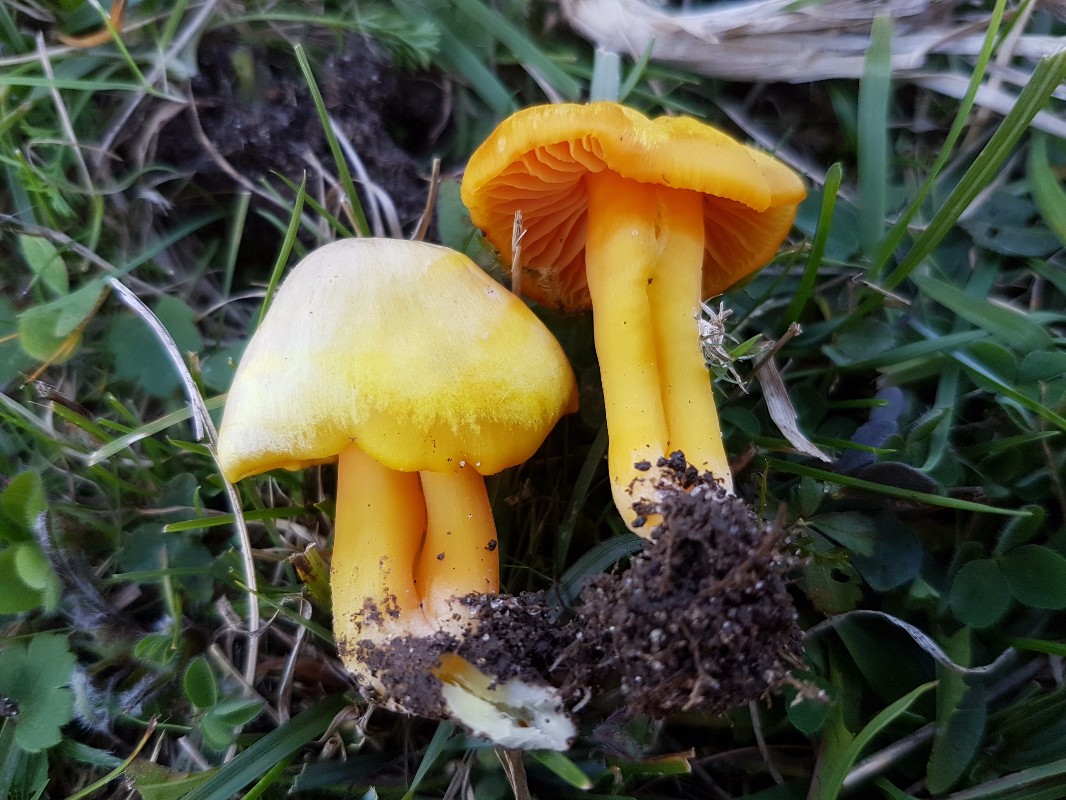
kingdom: Fungi
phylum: Basidiomycota
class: Agaricomycetes
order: Agaricales
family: Hygrophoraceae
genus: Hygrocybe
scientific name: Hygrocybe quieta
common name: tæge-vokshat
